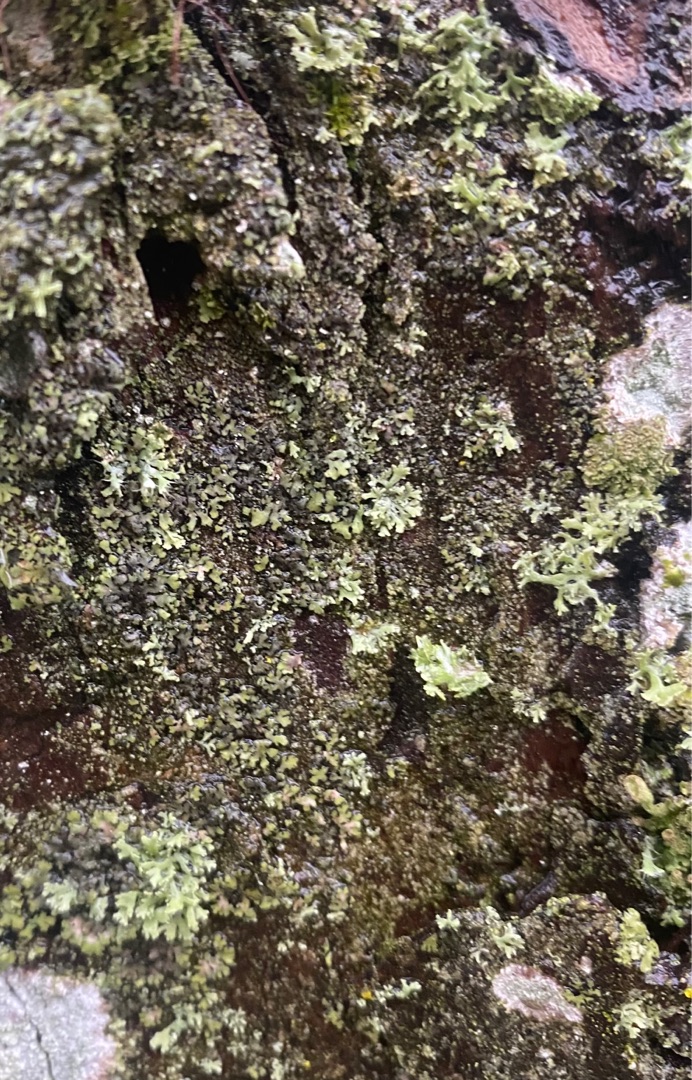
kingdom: Fungi
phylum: Ascomycota
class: Lecanoromycetes
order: Caliciales
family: Physciaceae
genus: Phaeophyscia
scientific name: Phaeophyscia orbicularis
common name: Grågrøn rosetlav
